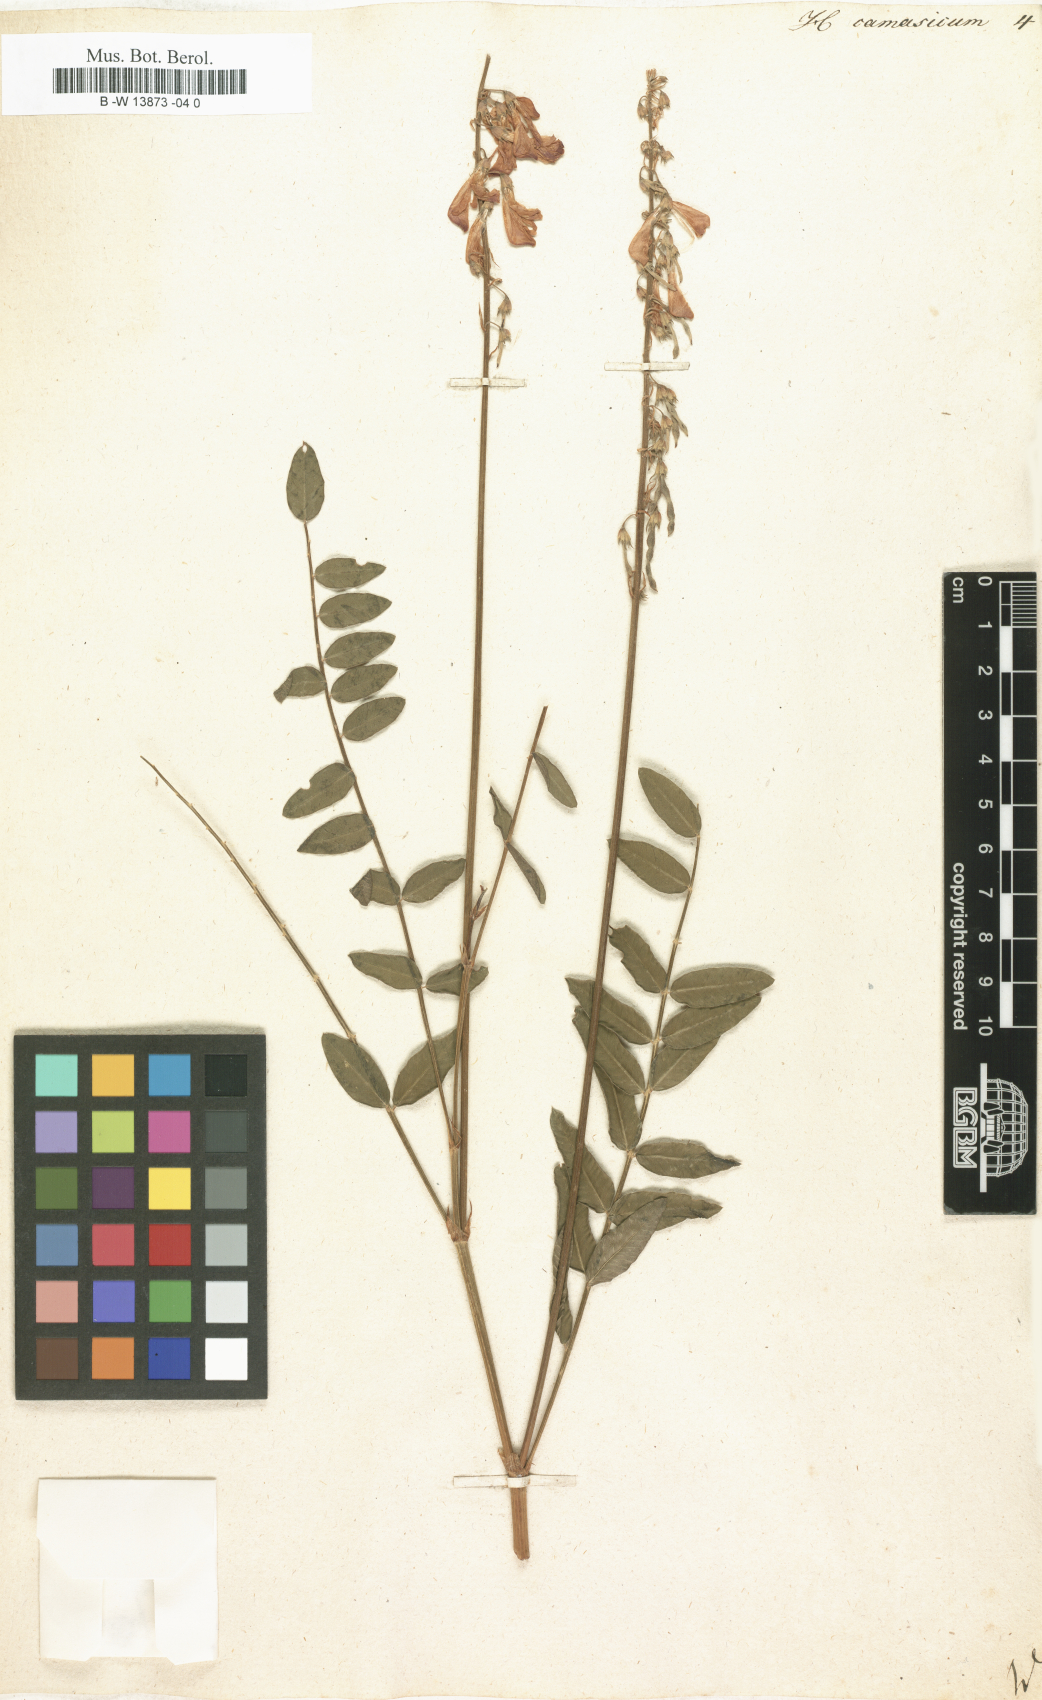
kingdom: Plantae
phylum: Tracheophyta
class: Magnoliopsida
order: Fabales
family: Fabaceae
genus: Hedysarum
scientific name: Hedysarum caucasicum
